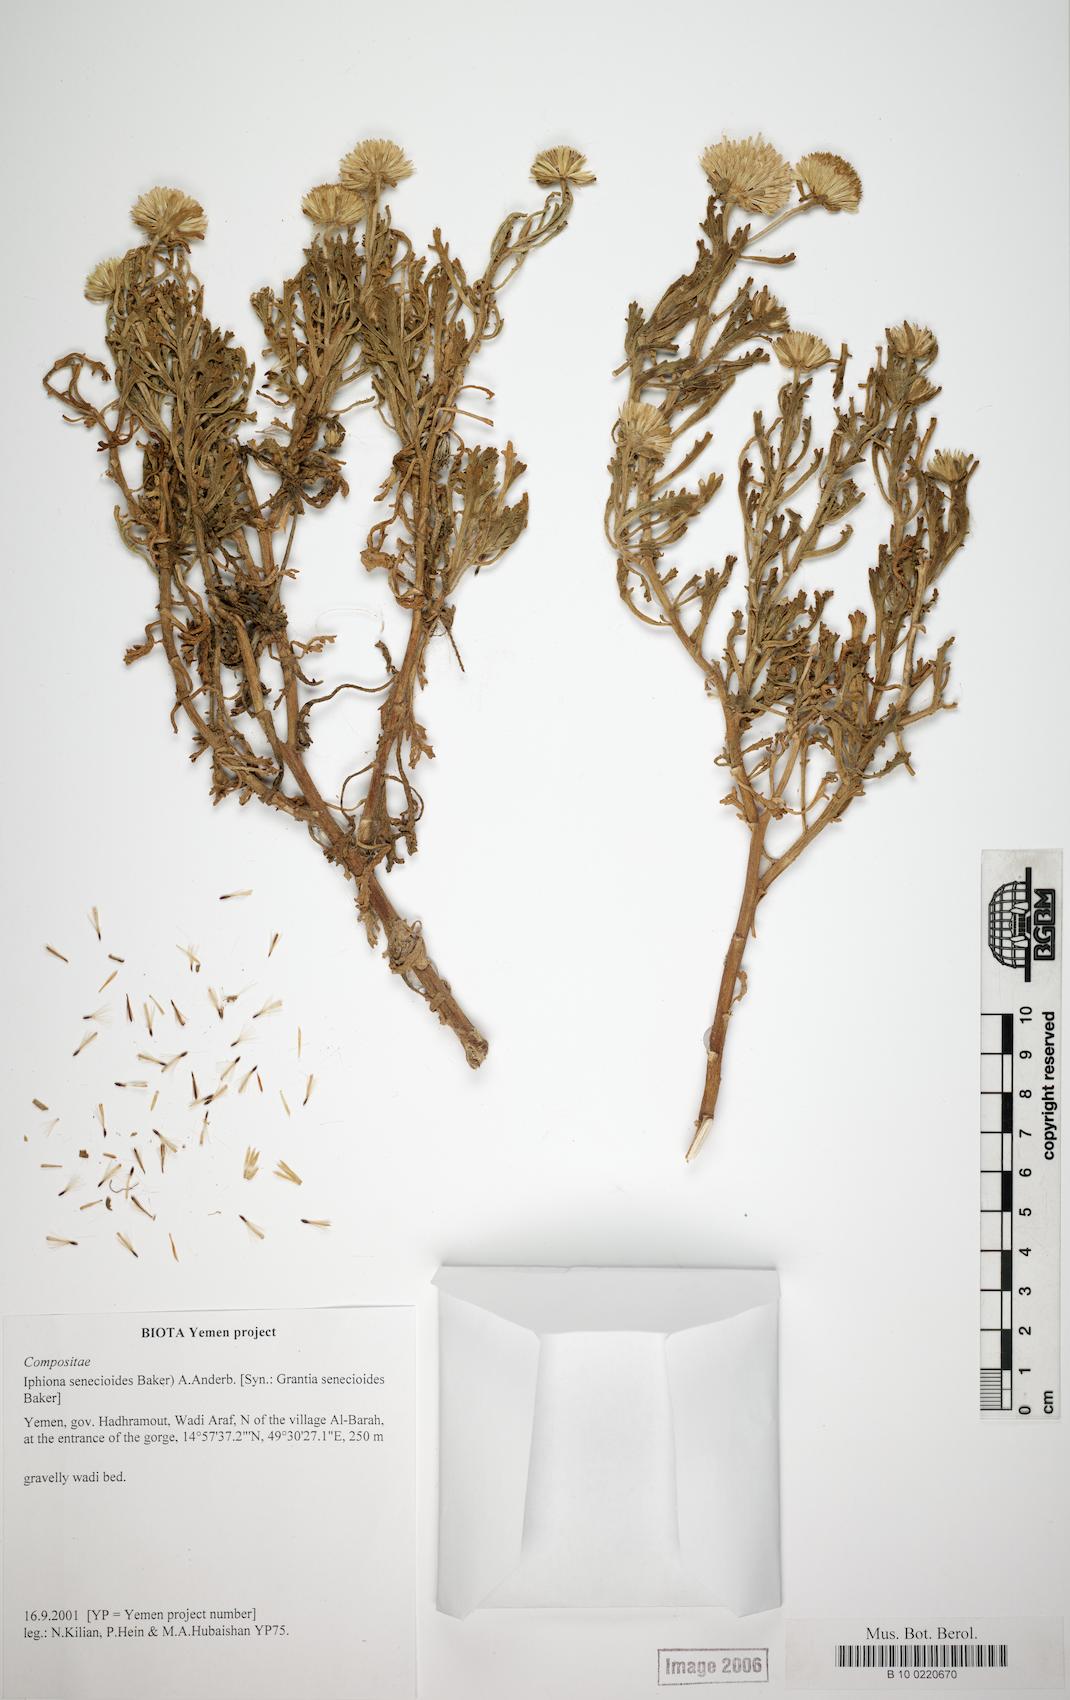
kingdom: Plantae
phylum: Tracheophyta
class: Magnoliopsida
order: Caryophyllales
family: Caryophyllaceae
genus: Arenaria
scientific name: Arenaria leptoclados
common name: Thyme-leaved sandwort
